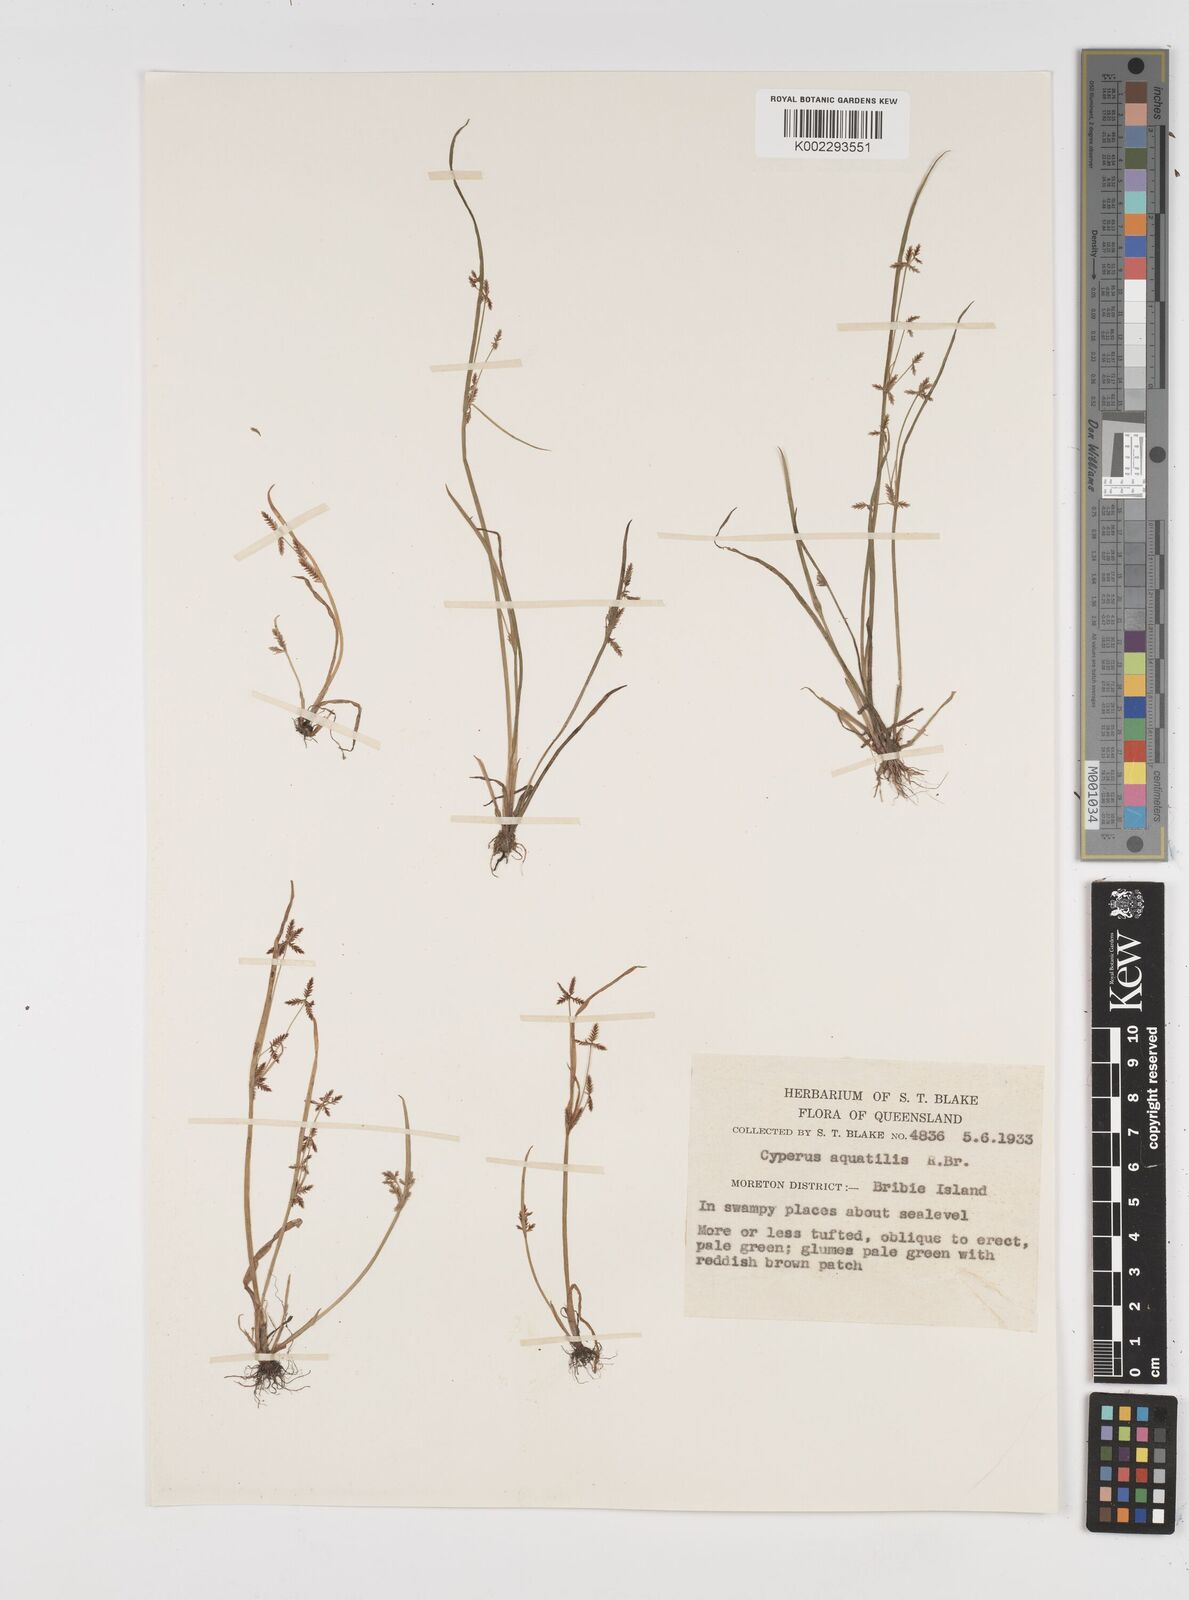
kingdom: Plantae
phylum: Tracheophyta
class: Liliopsida
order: Poales
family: Cyperaceae
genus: Cyperus
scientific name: Cyperus aquatilis
